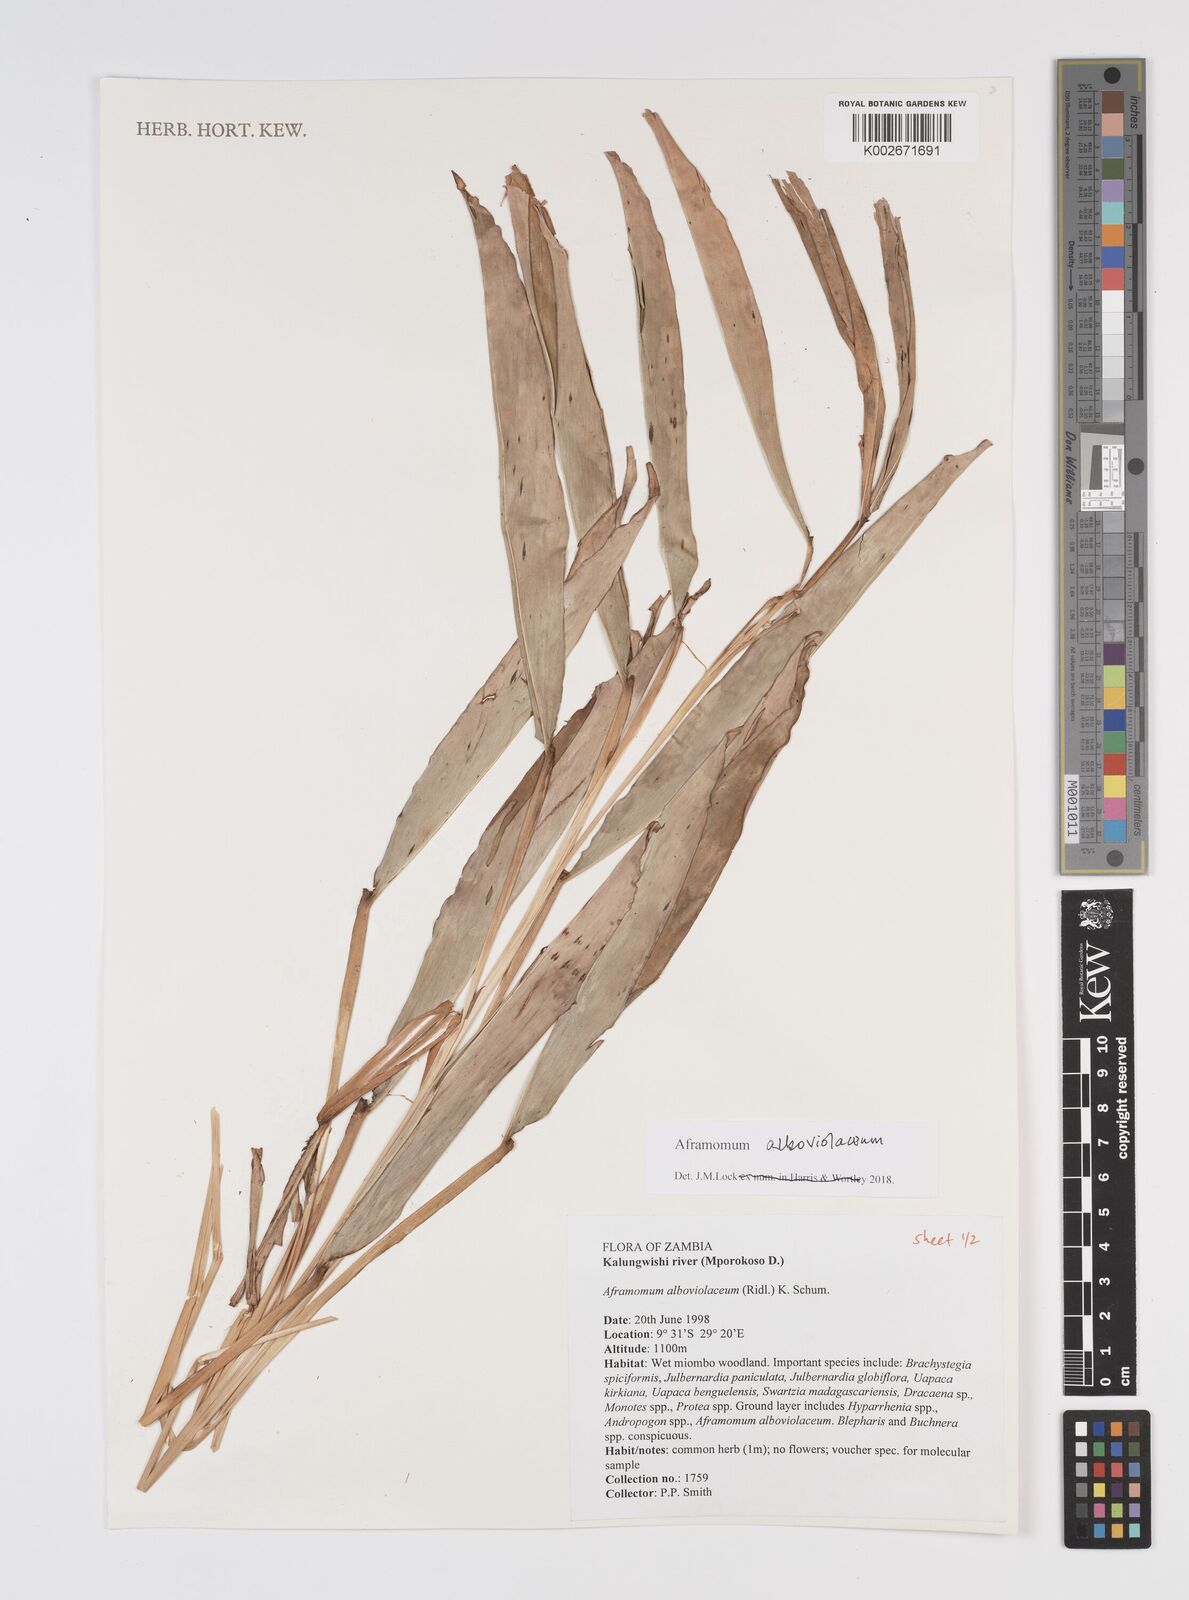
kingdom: Plantae
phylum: Tracheophyta
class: Liliopsida
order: Zingiberales
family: Zingiberaceae
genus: Aframomum
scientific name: Aframomum alboviolaceum
